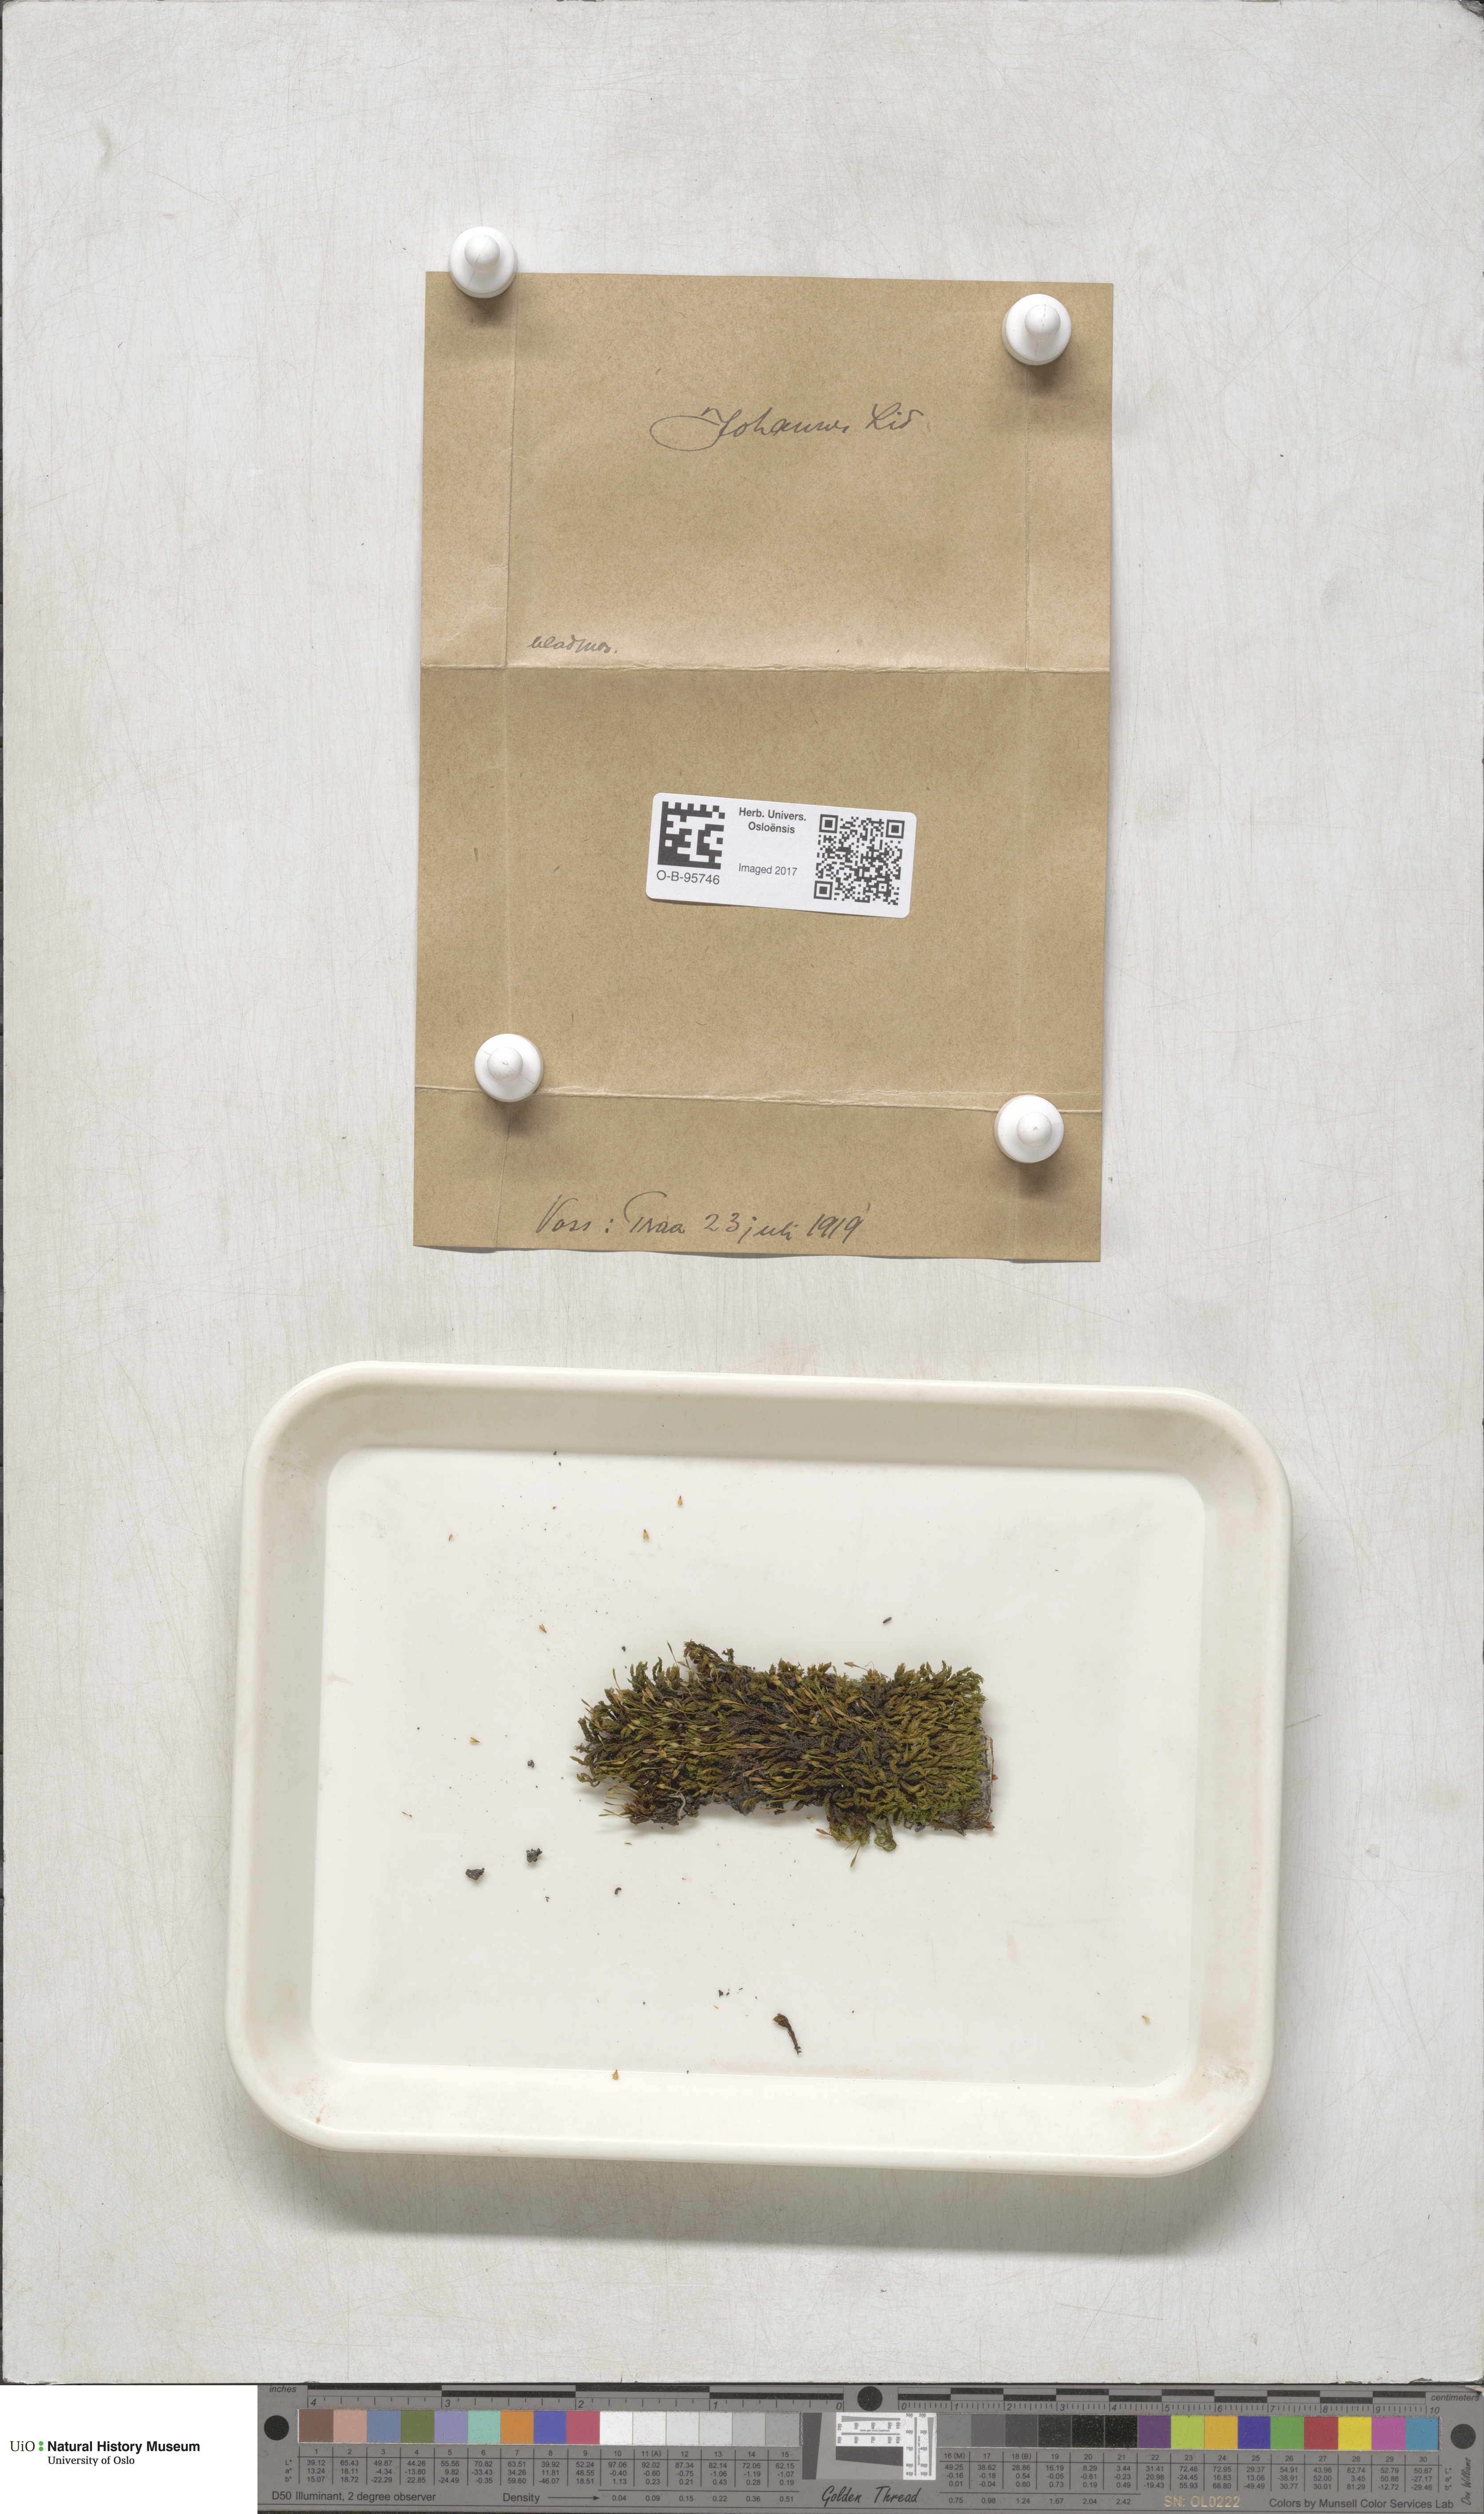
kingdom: Plantae
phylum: Bryophyta
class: Bryopsida
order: Orthotrichales
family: Orthotrichaceae
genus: Orthotrichum
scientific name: Orthotrichum
